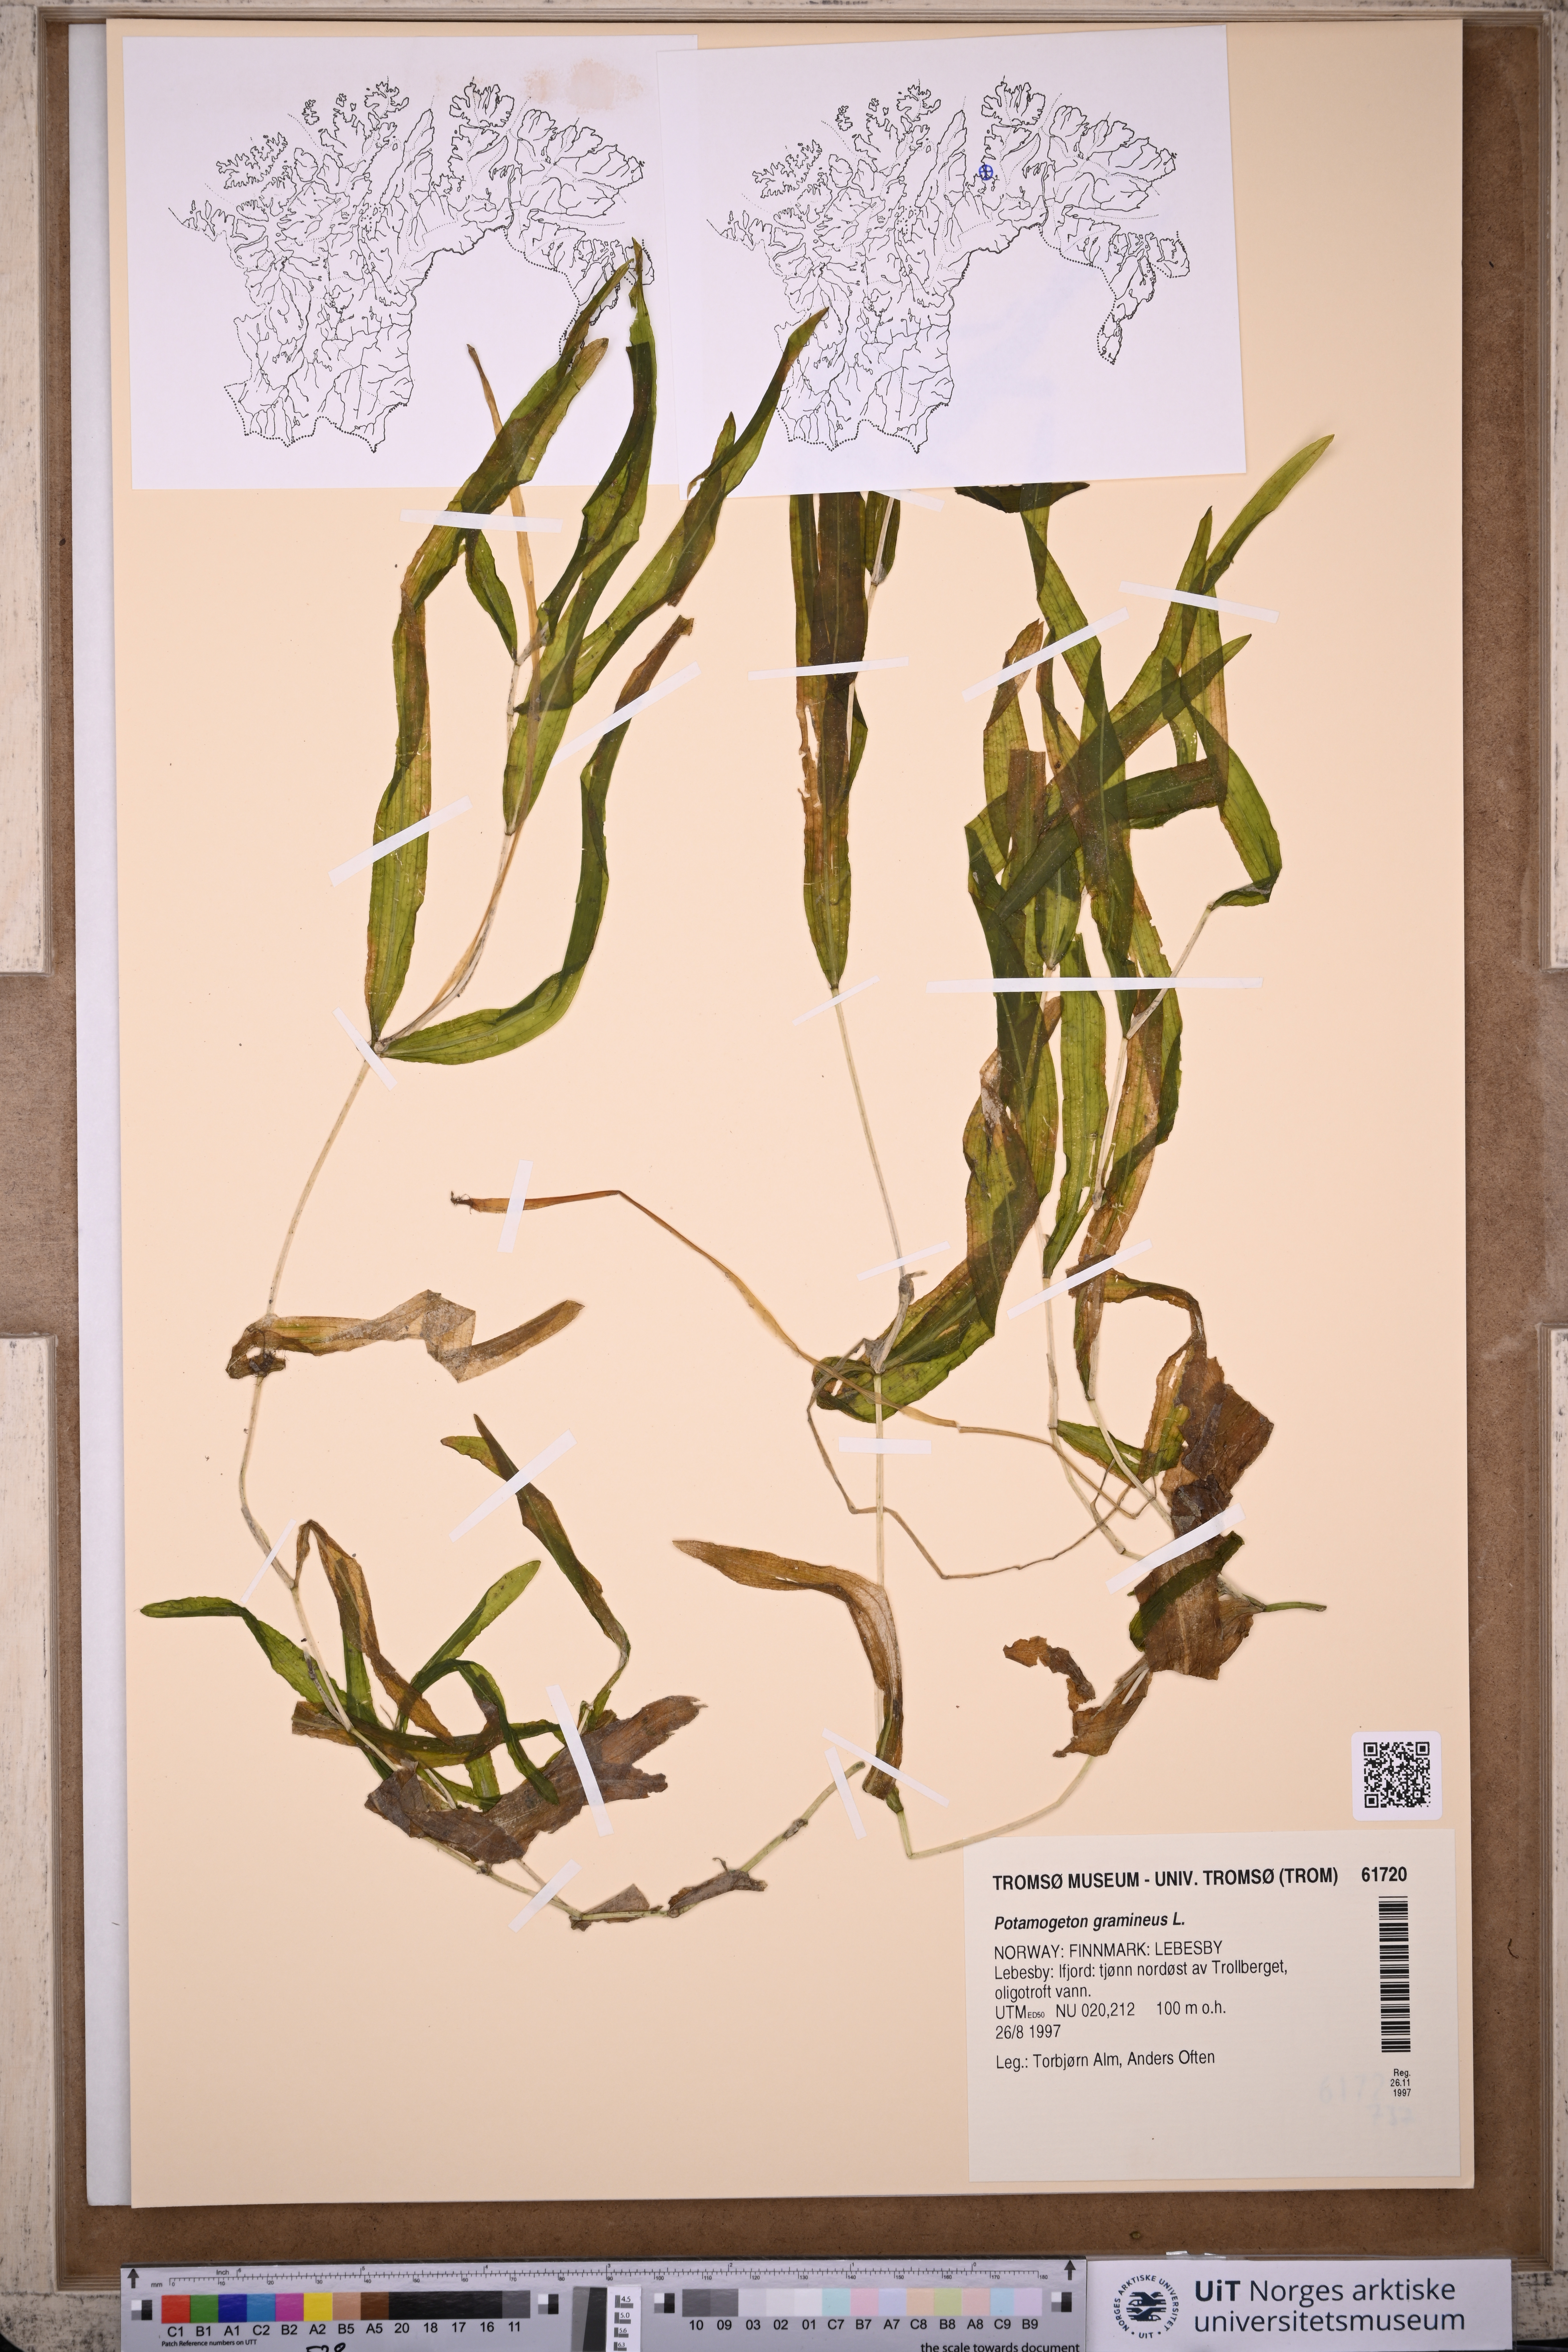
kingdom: Plantae
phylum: Tracheophyta
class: Liliopsida
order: Alismatales
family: Potamogetonaceae
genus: Potamogeton
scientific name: Potamogeton gramineus
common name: Various-leaved pondweed
